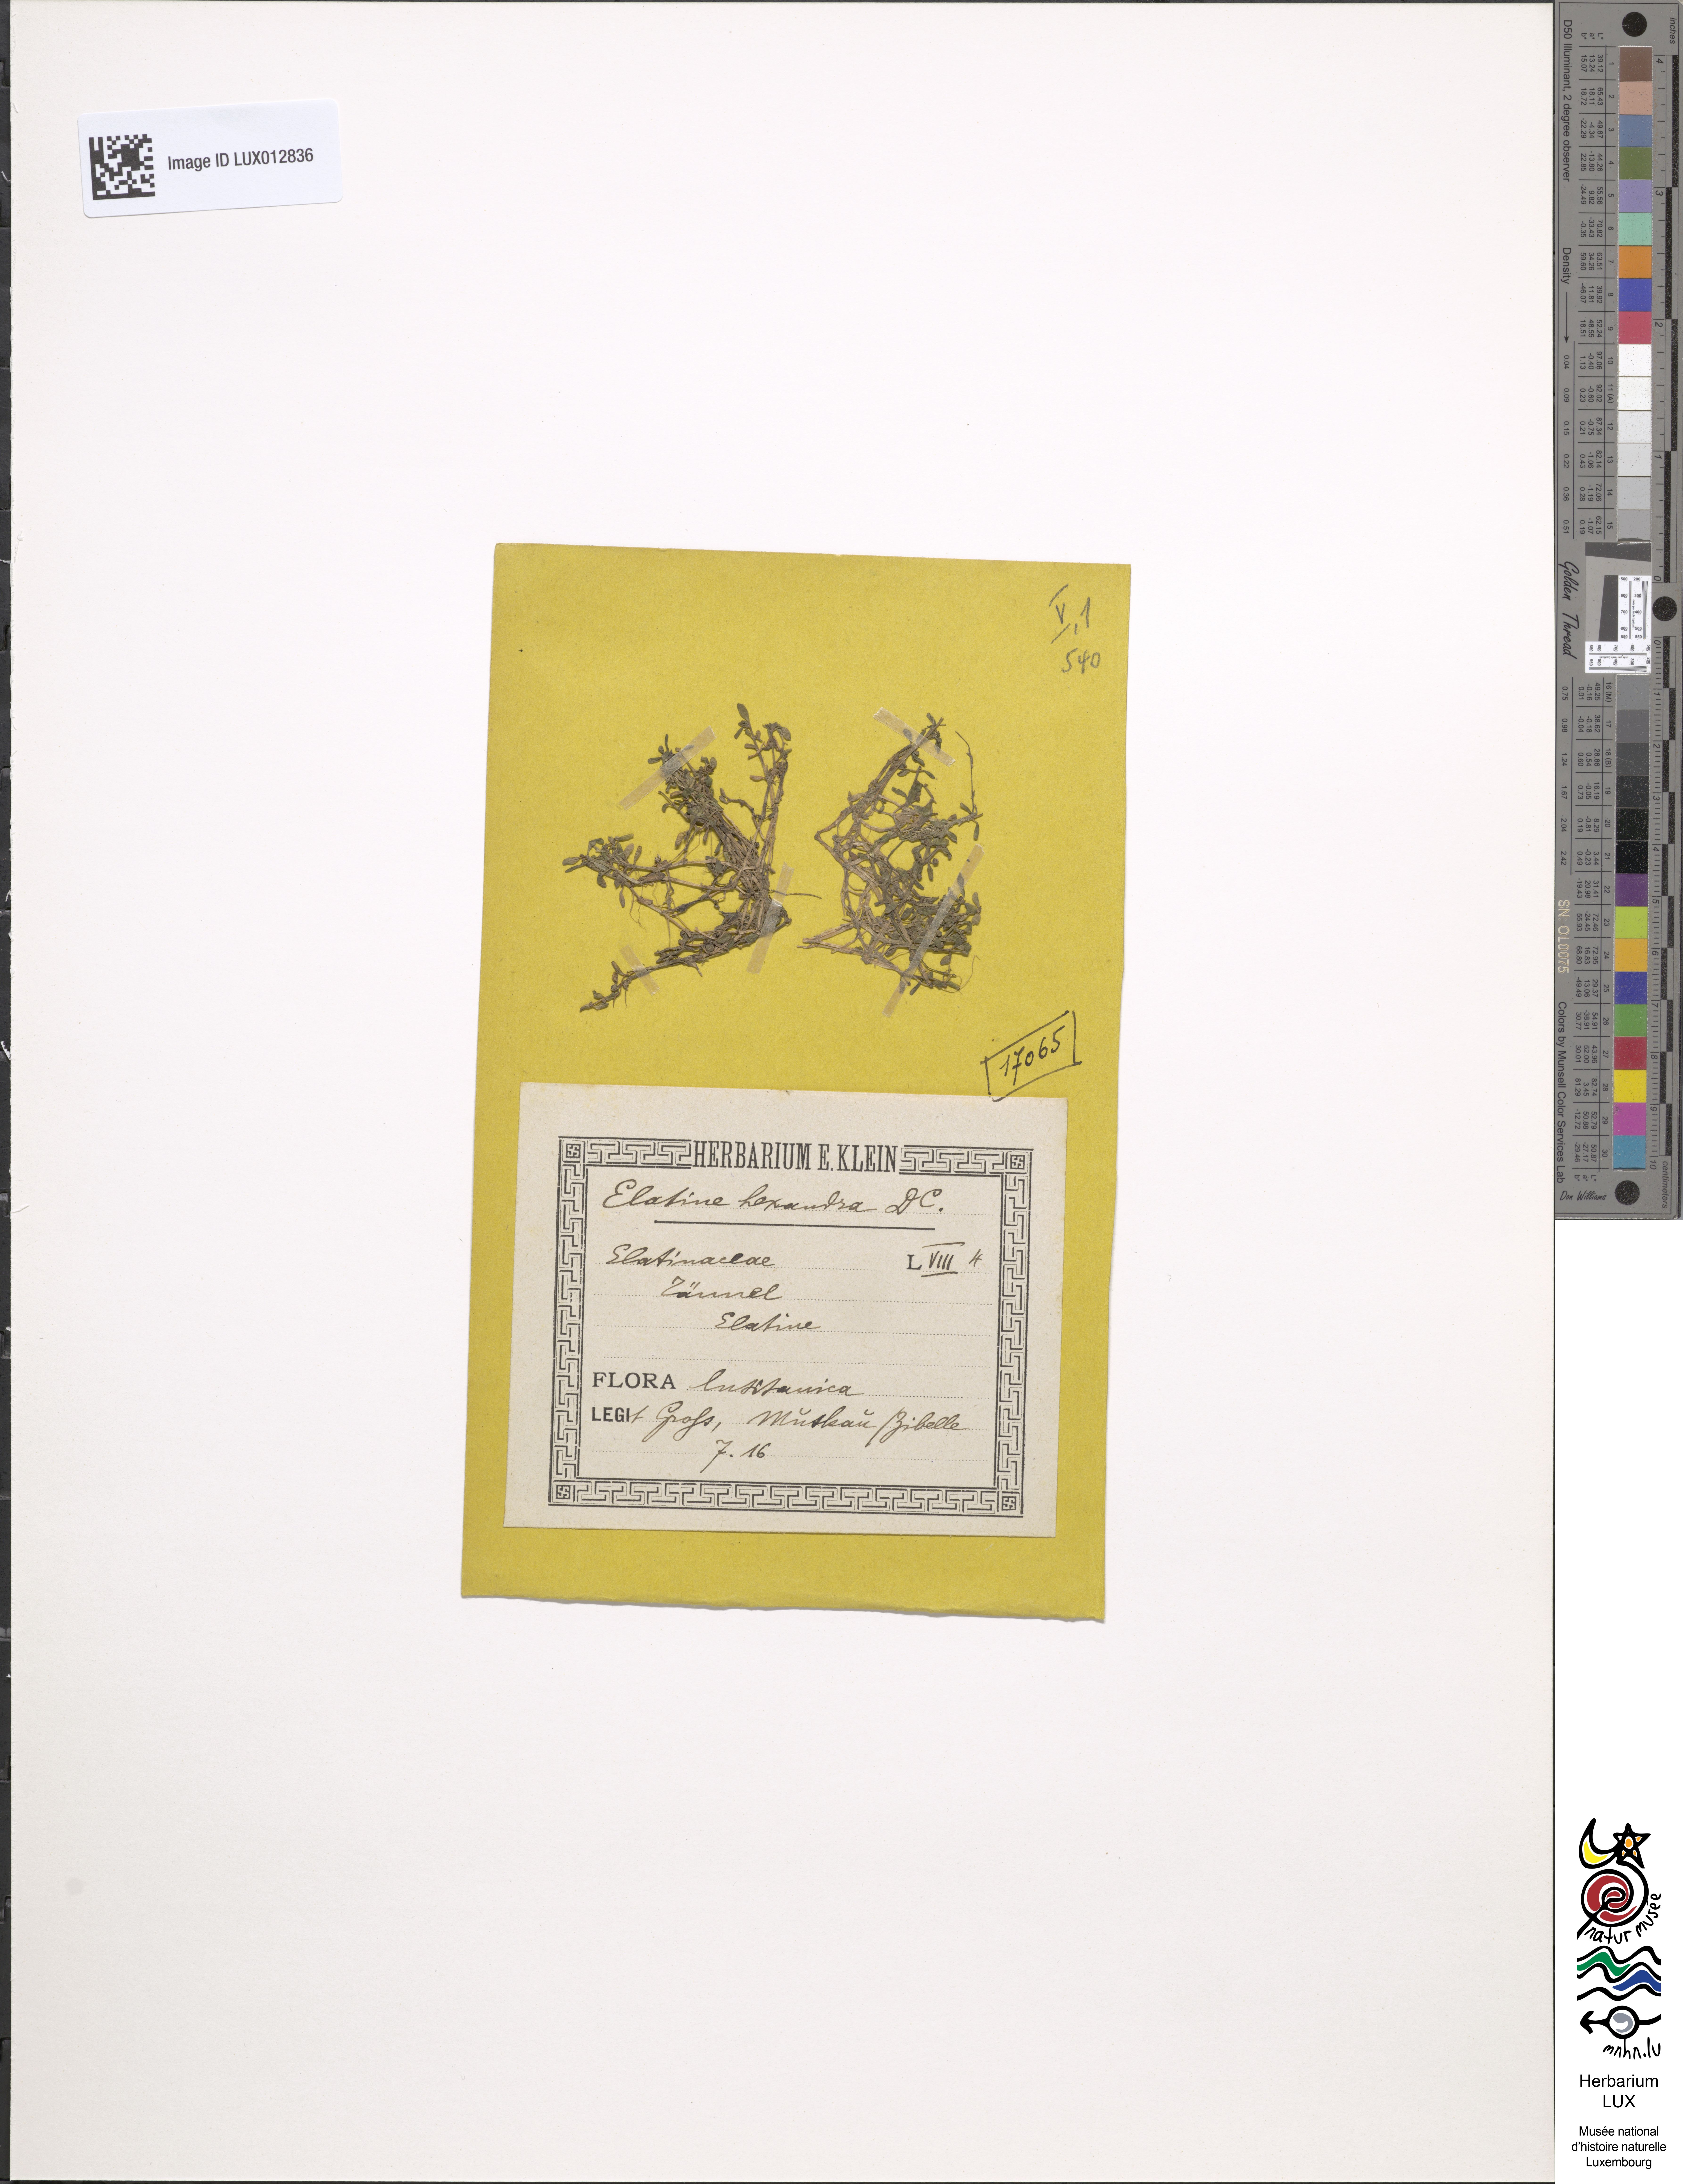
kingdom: Plantae
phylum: Tracheophyta
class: Magnoliopsida
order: Malpighiales
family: Elatinaceae
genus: Elatine
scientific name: Elatine hexandra
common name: Six-stamened waterwort
